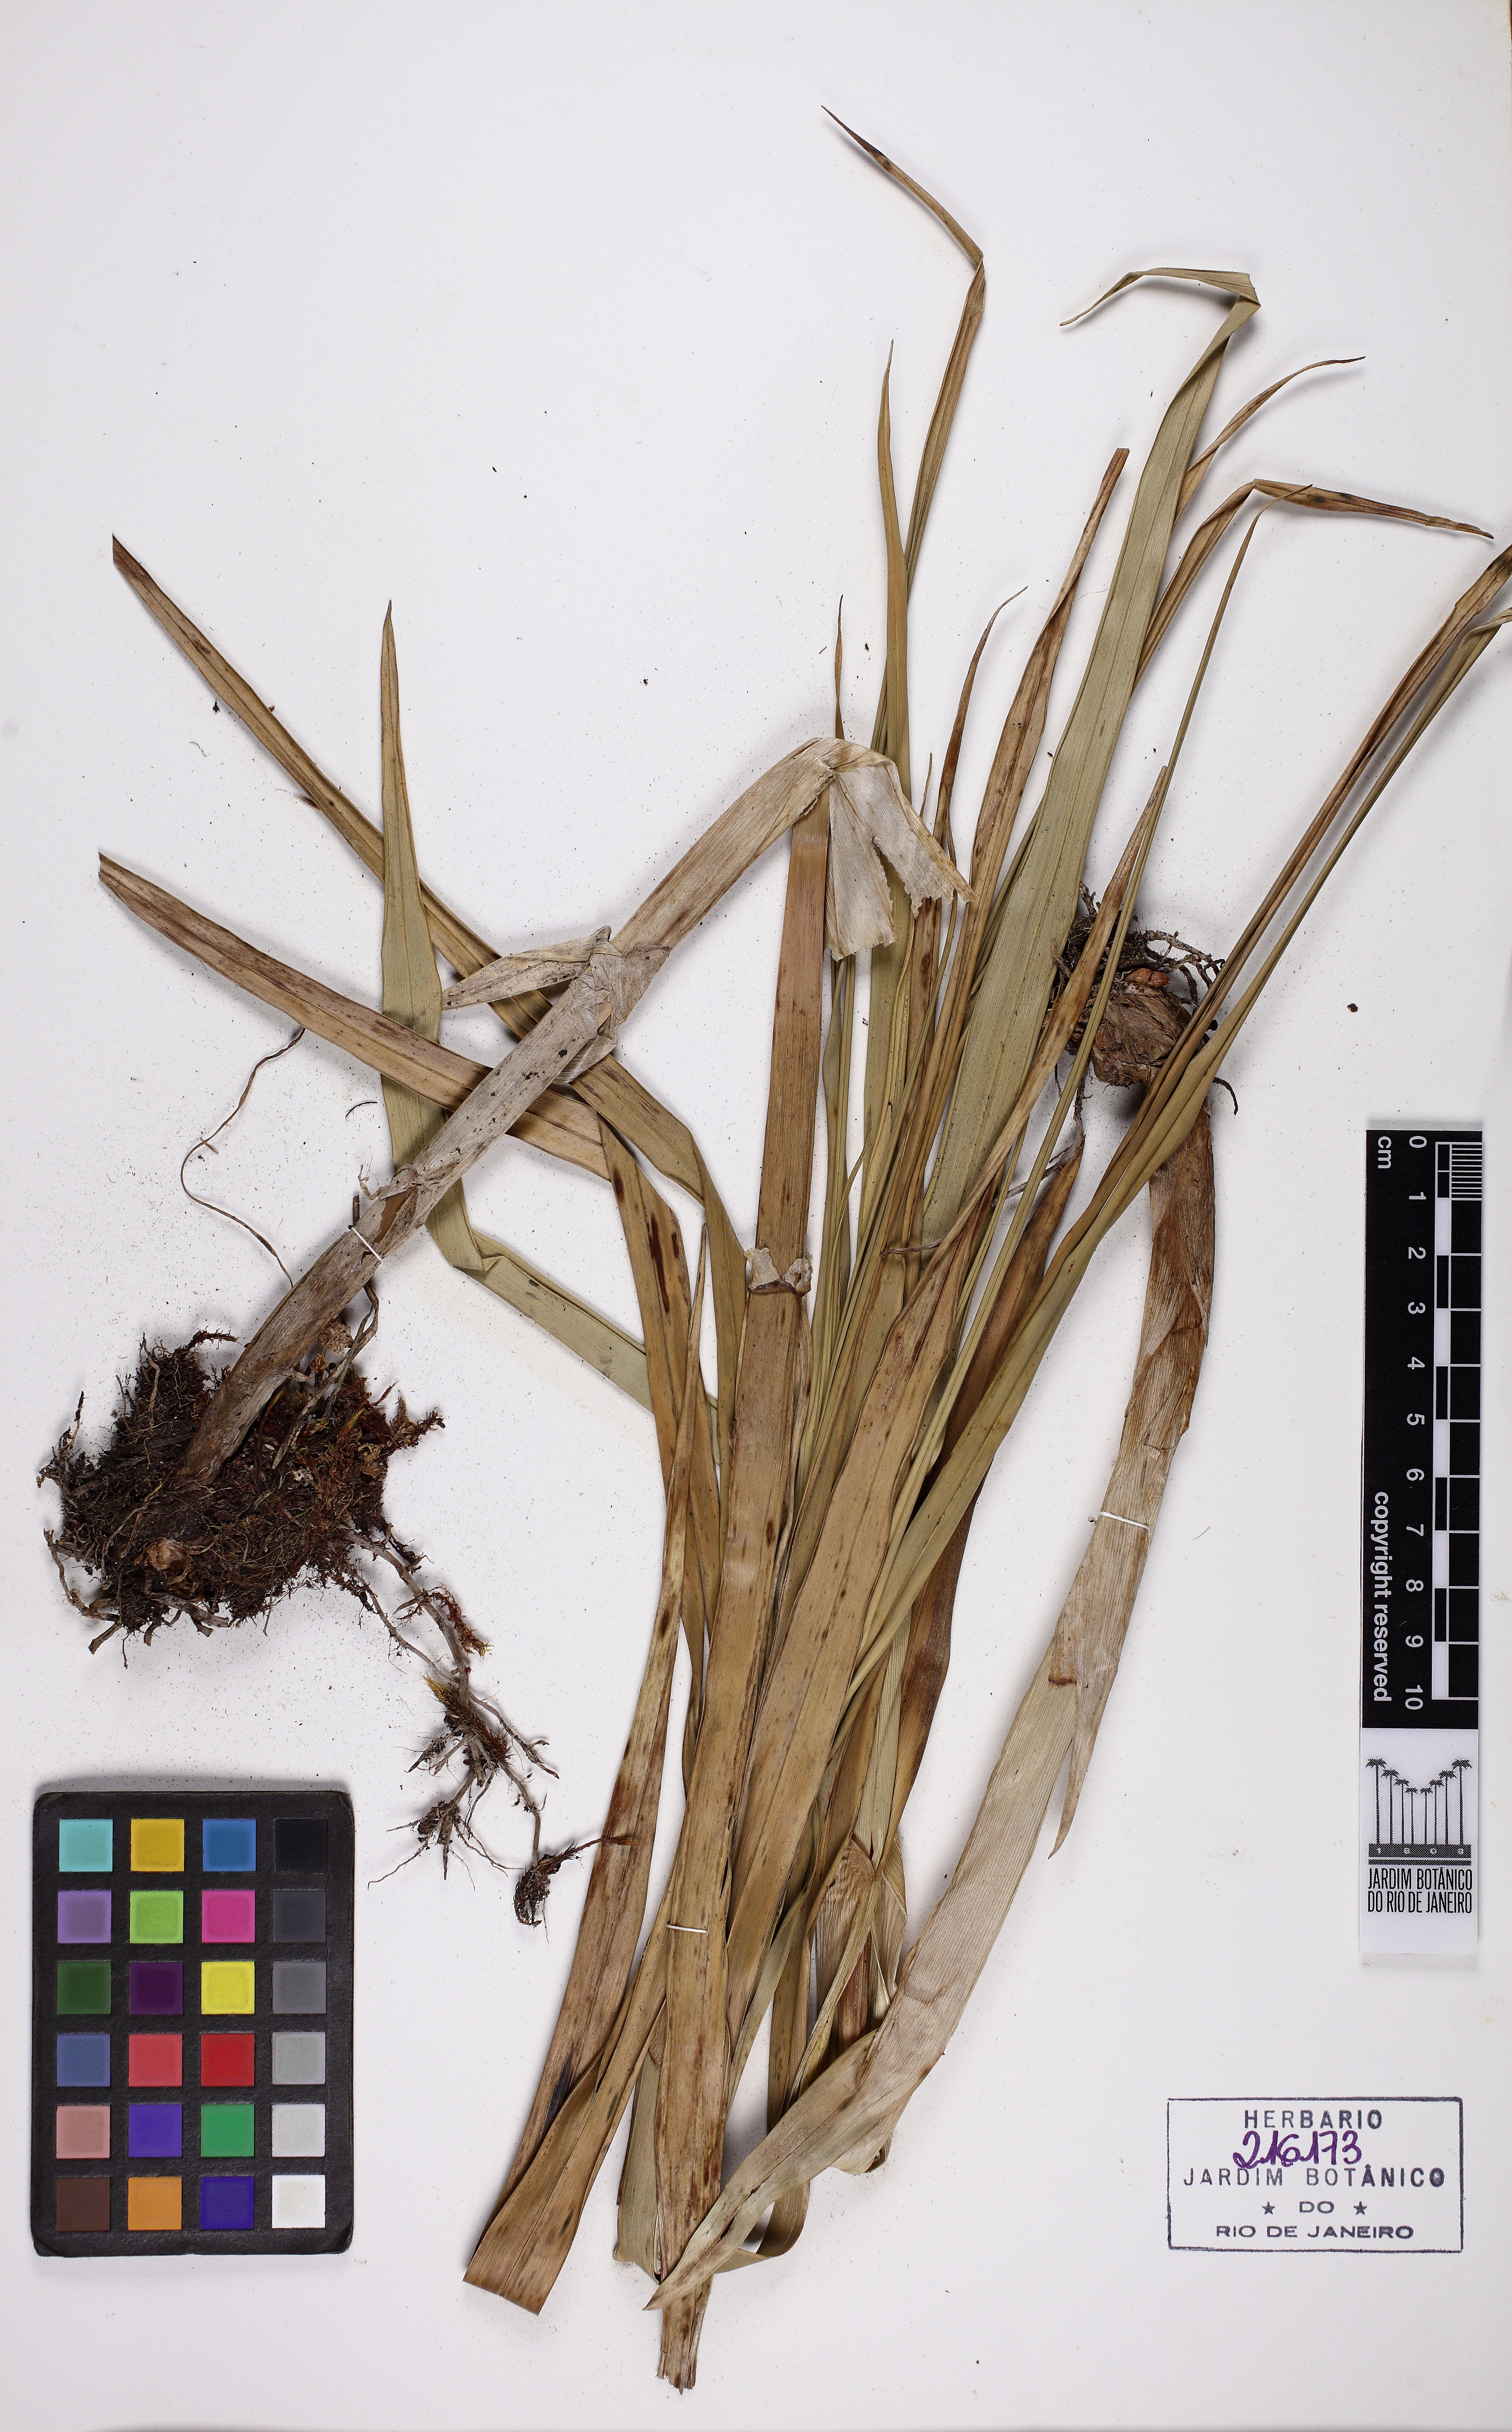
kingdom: Plantae
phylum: Tracheophyta
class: Liliopsida
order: Poales
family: Cyperaceae
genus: Rhynchospora
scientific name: Rhynchospora exaltata
